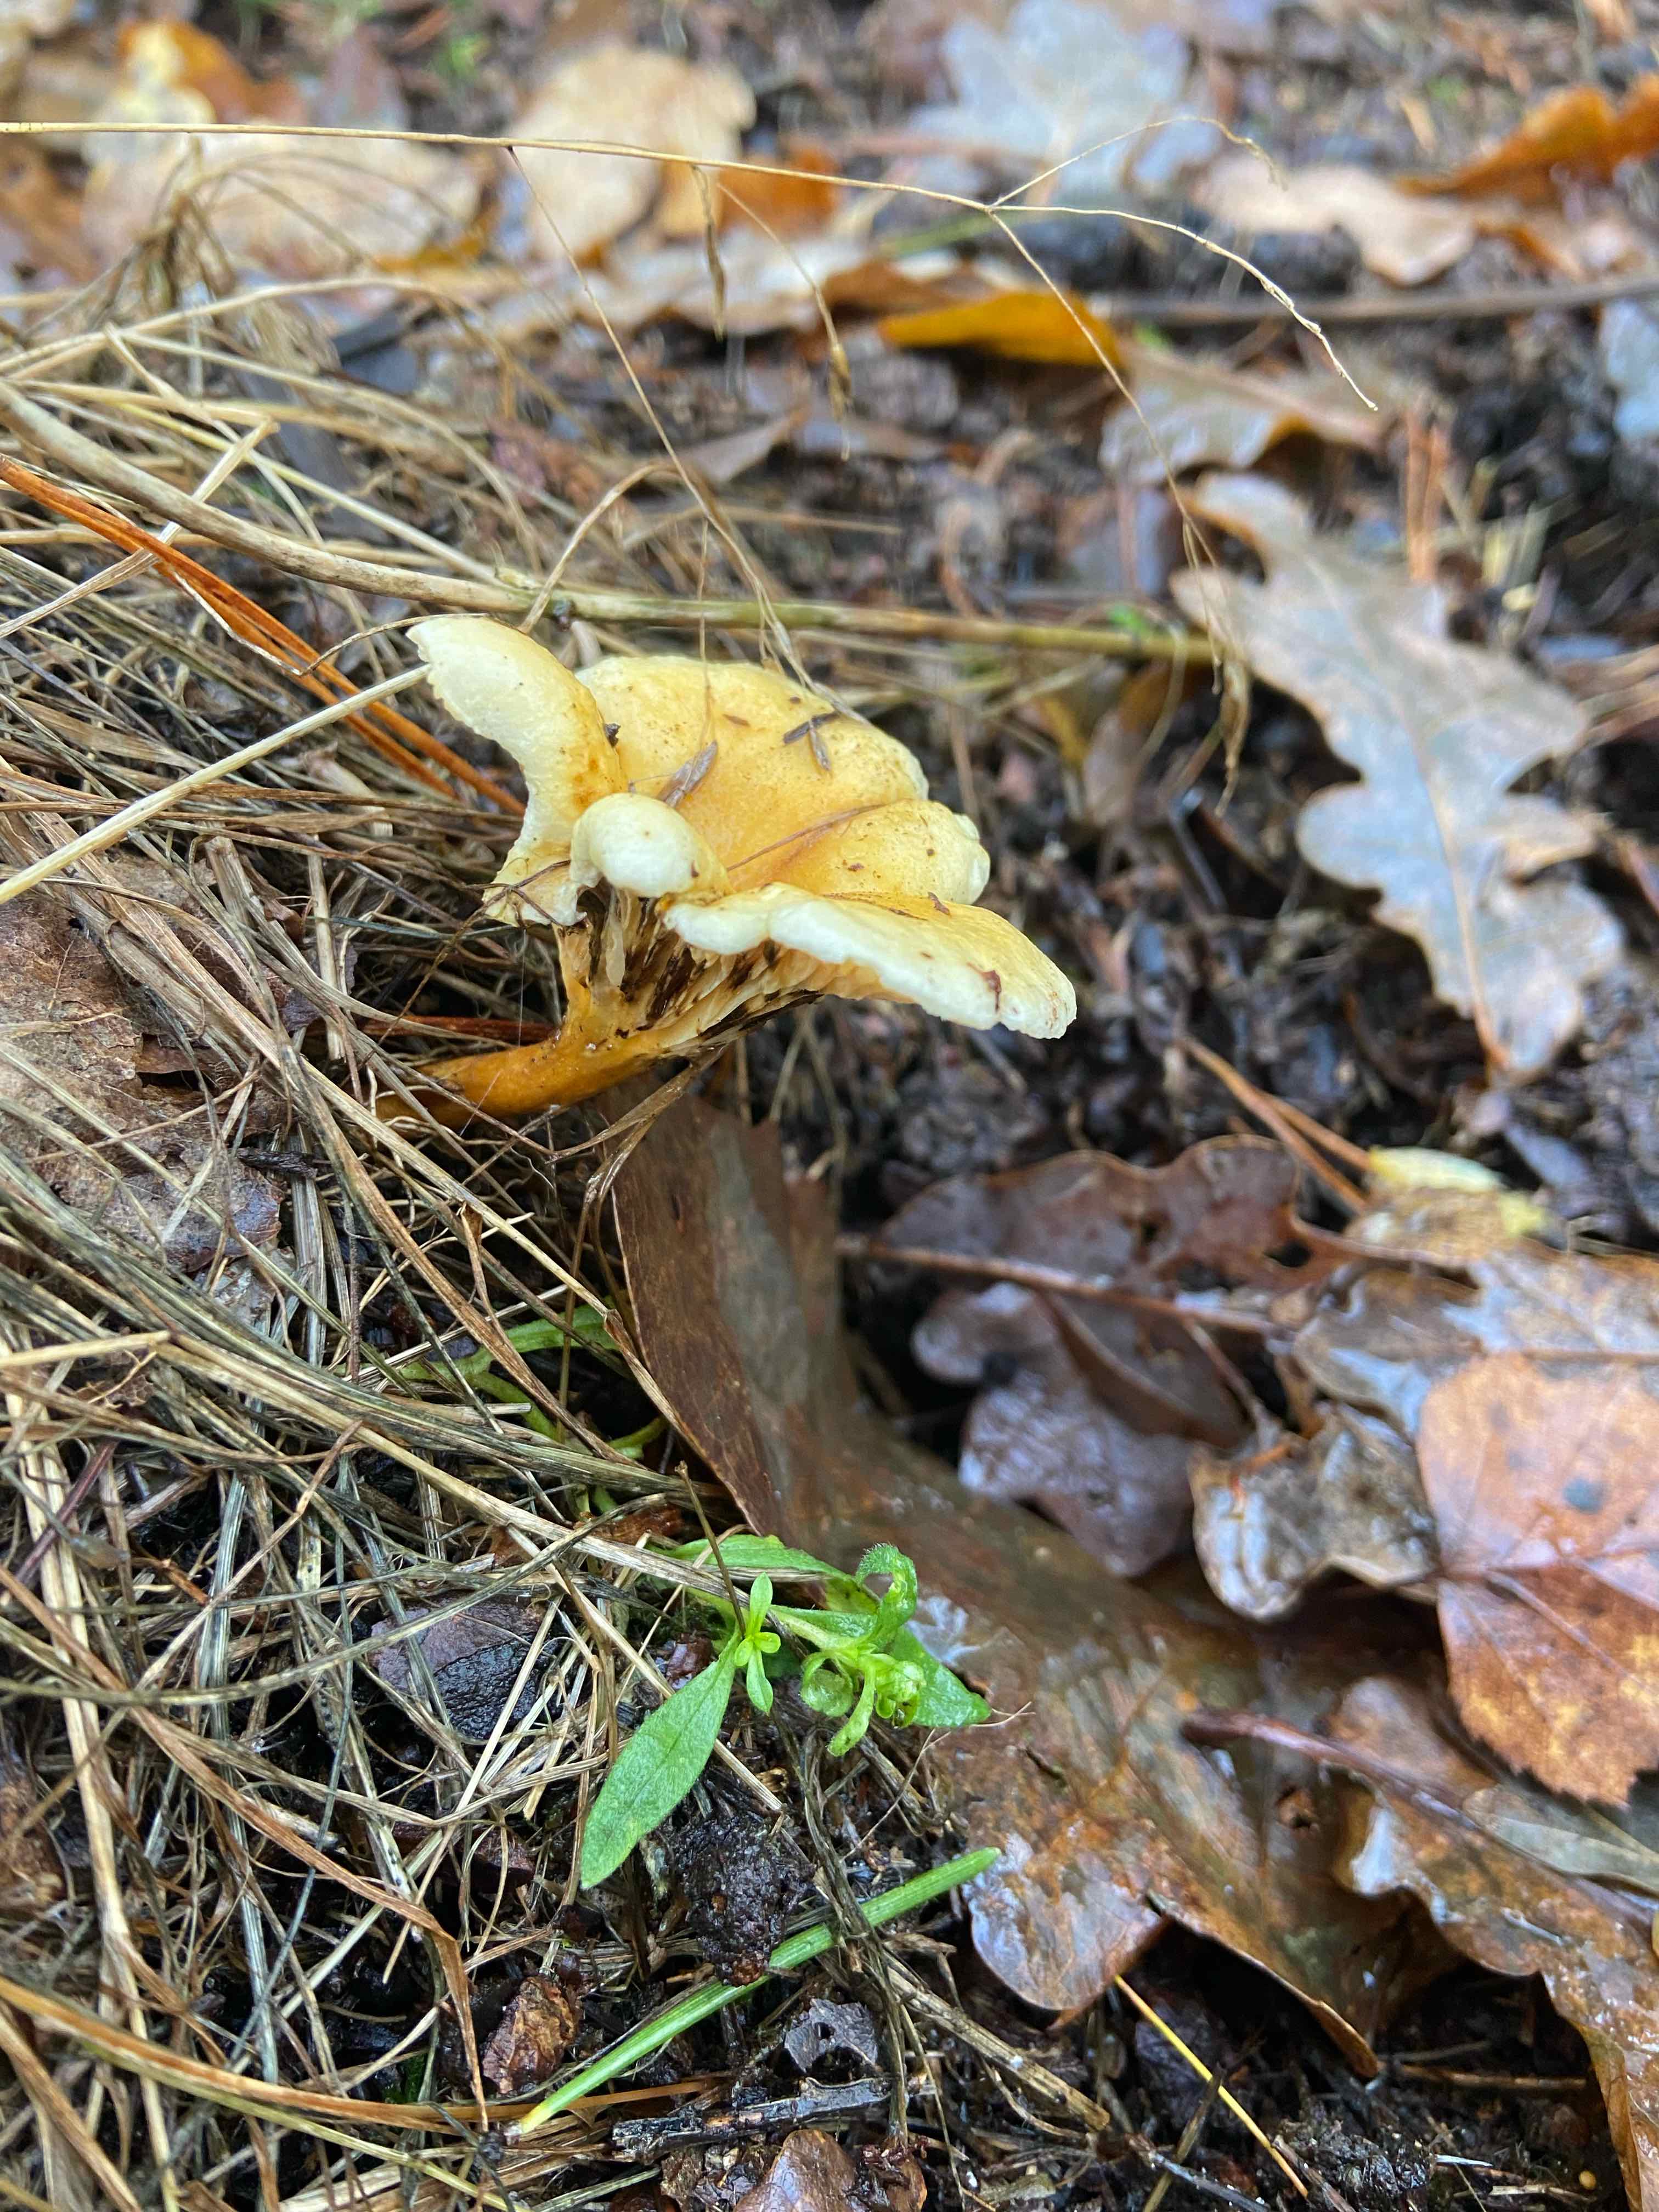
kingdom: Fungi
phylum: Basidiomycota
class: Agaricomycetes
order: Boletales
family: Hygrophoropsidaceae
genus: Hygrophoropsis
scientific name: Hygrophoropsis
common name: orangekantarel
